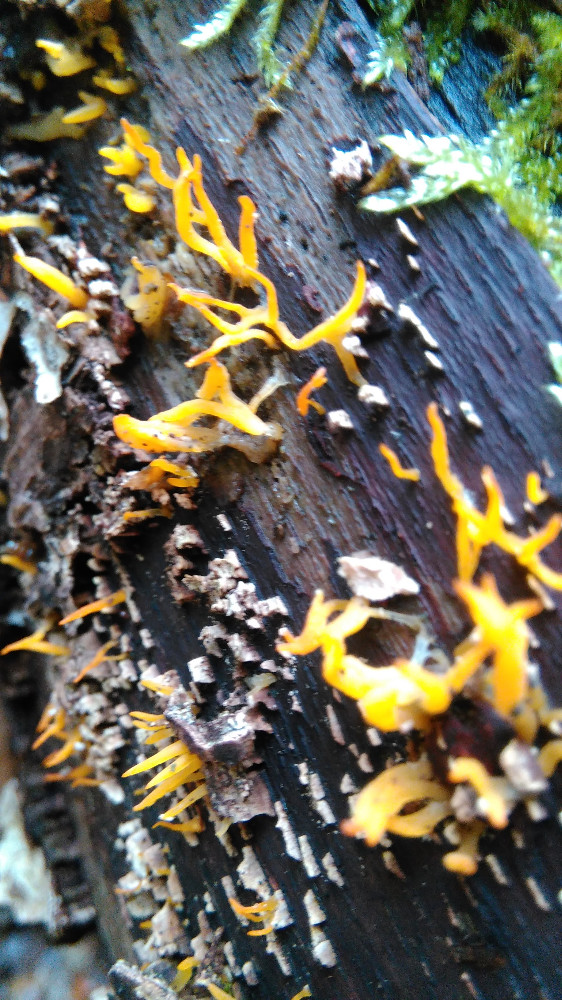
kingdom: Fungi
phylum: Basidiomycota
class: Dacrymycetes
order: Dacrymycetales
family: Dacrymycetaceae
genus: Calocera
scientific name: Calocera cornea
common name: liden guldgaffel
